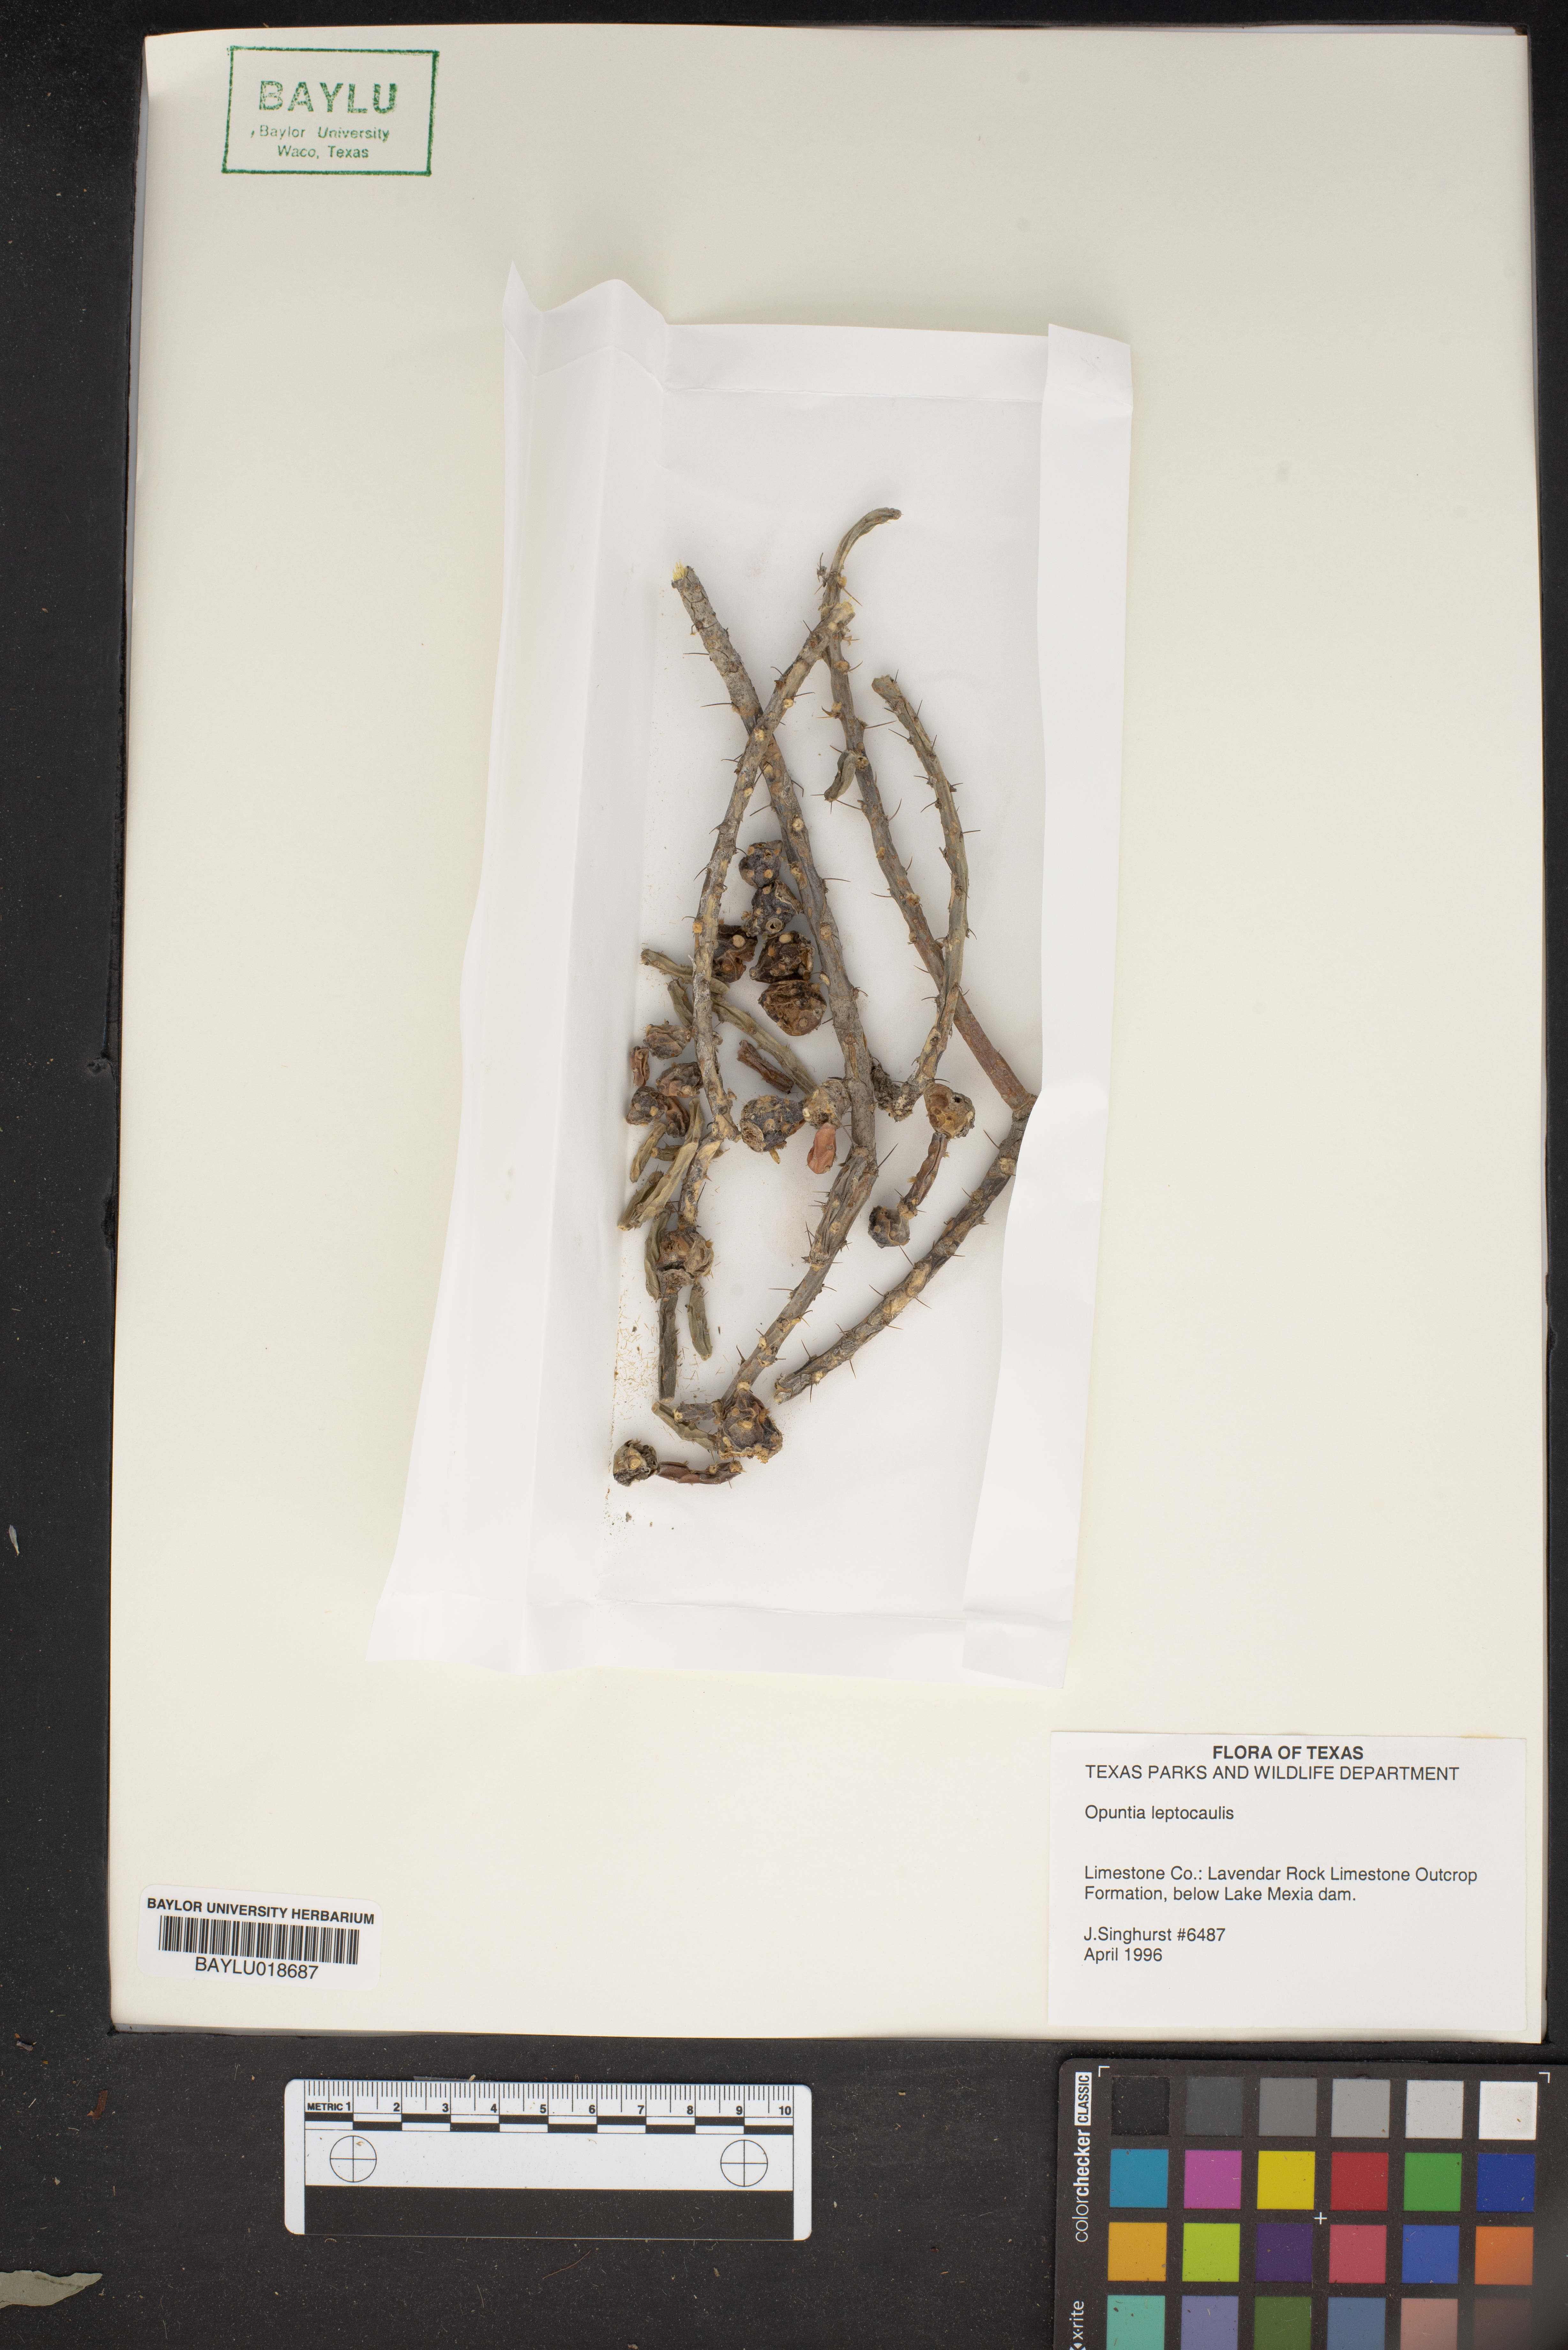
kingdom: Plantae
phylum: Tracheophyta
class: Magnoliopsida
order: Caryophyllales
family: Cactaceae
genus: Cylindropuntia
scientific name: Cylindropuntia leptocaulis
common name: Christmas cactus
